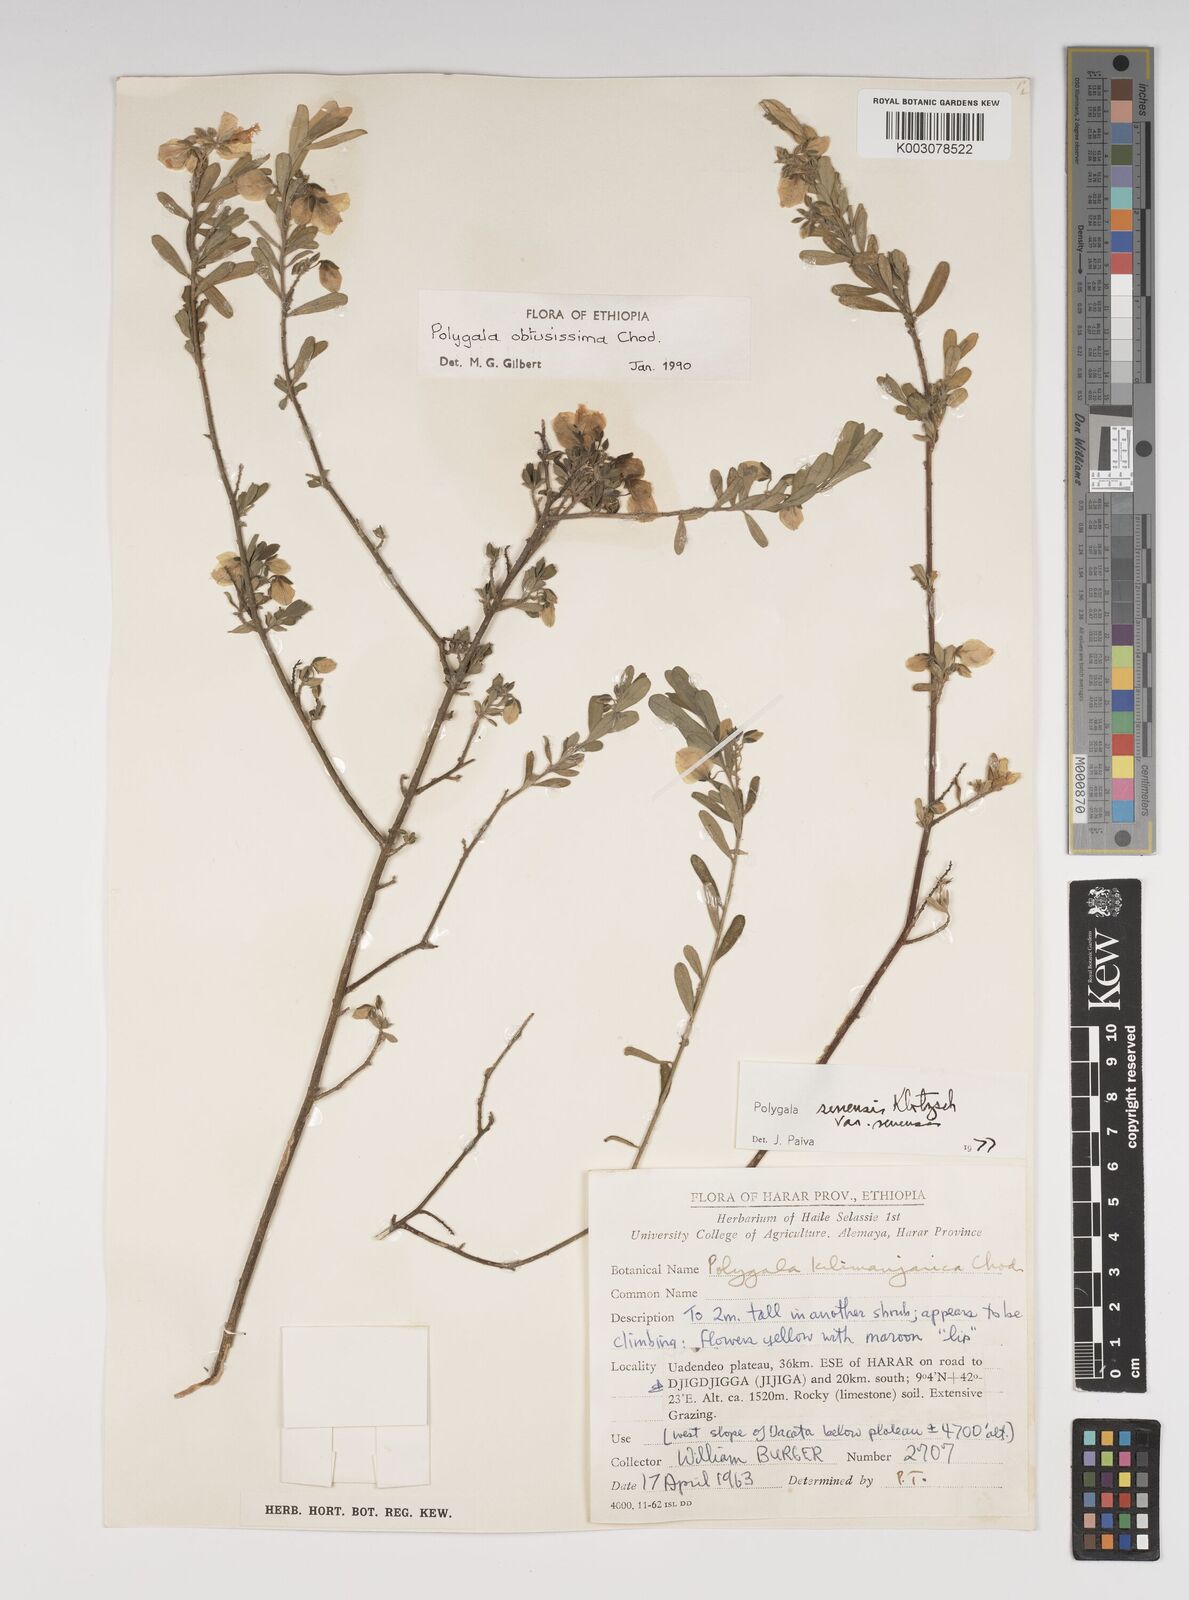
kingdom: Plantae
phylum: Tracheophyta
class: Magnoliopsida
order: Fabales
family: Polygalaceae
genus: Polygala
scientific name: Polygala senensis
